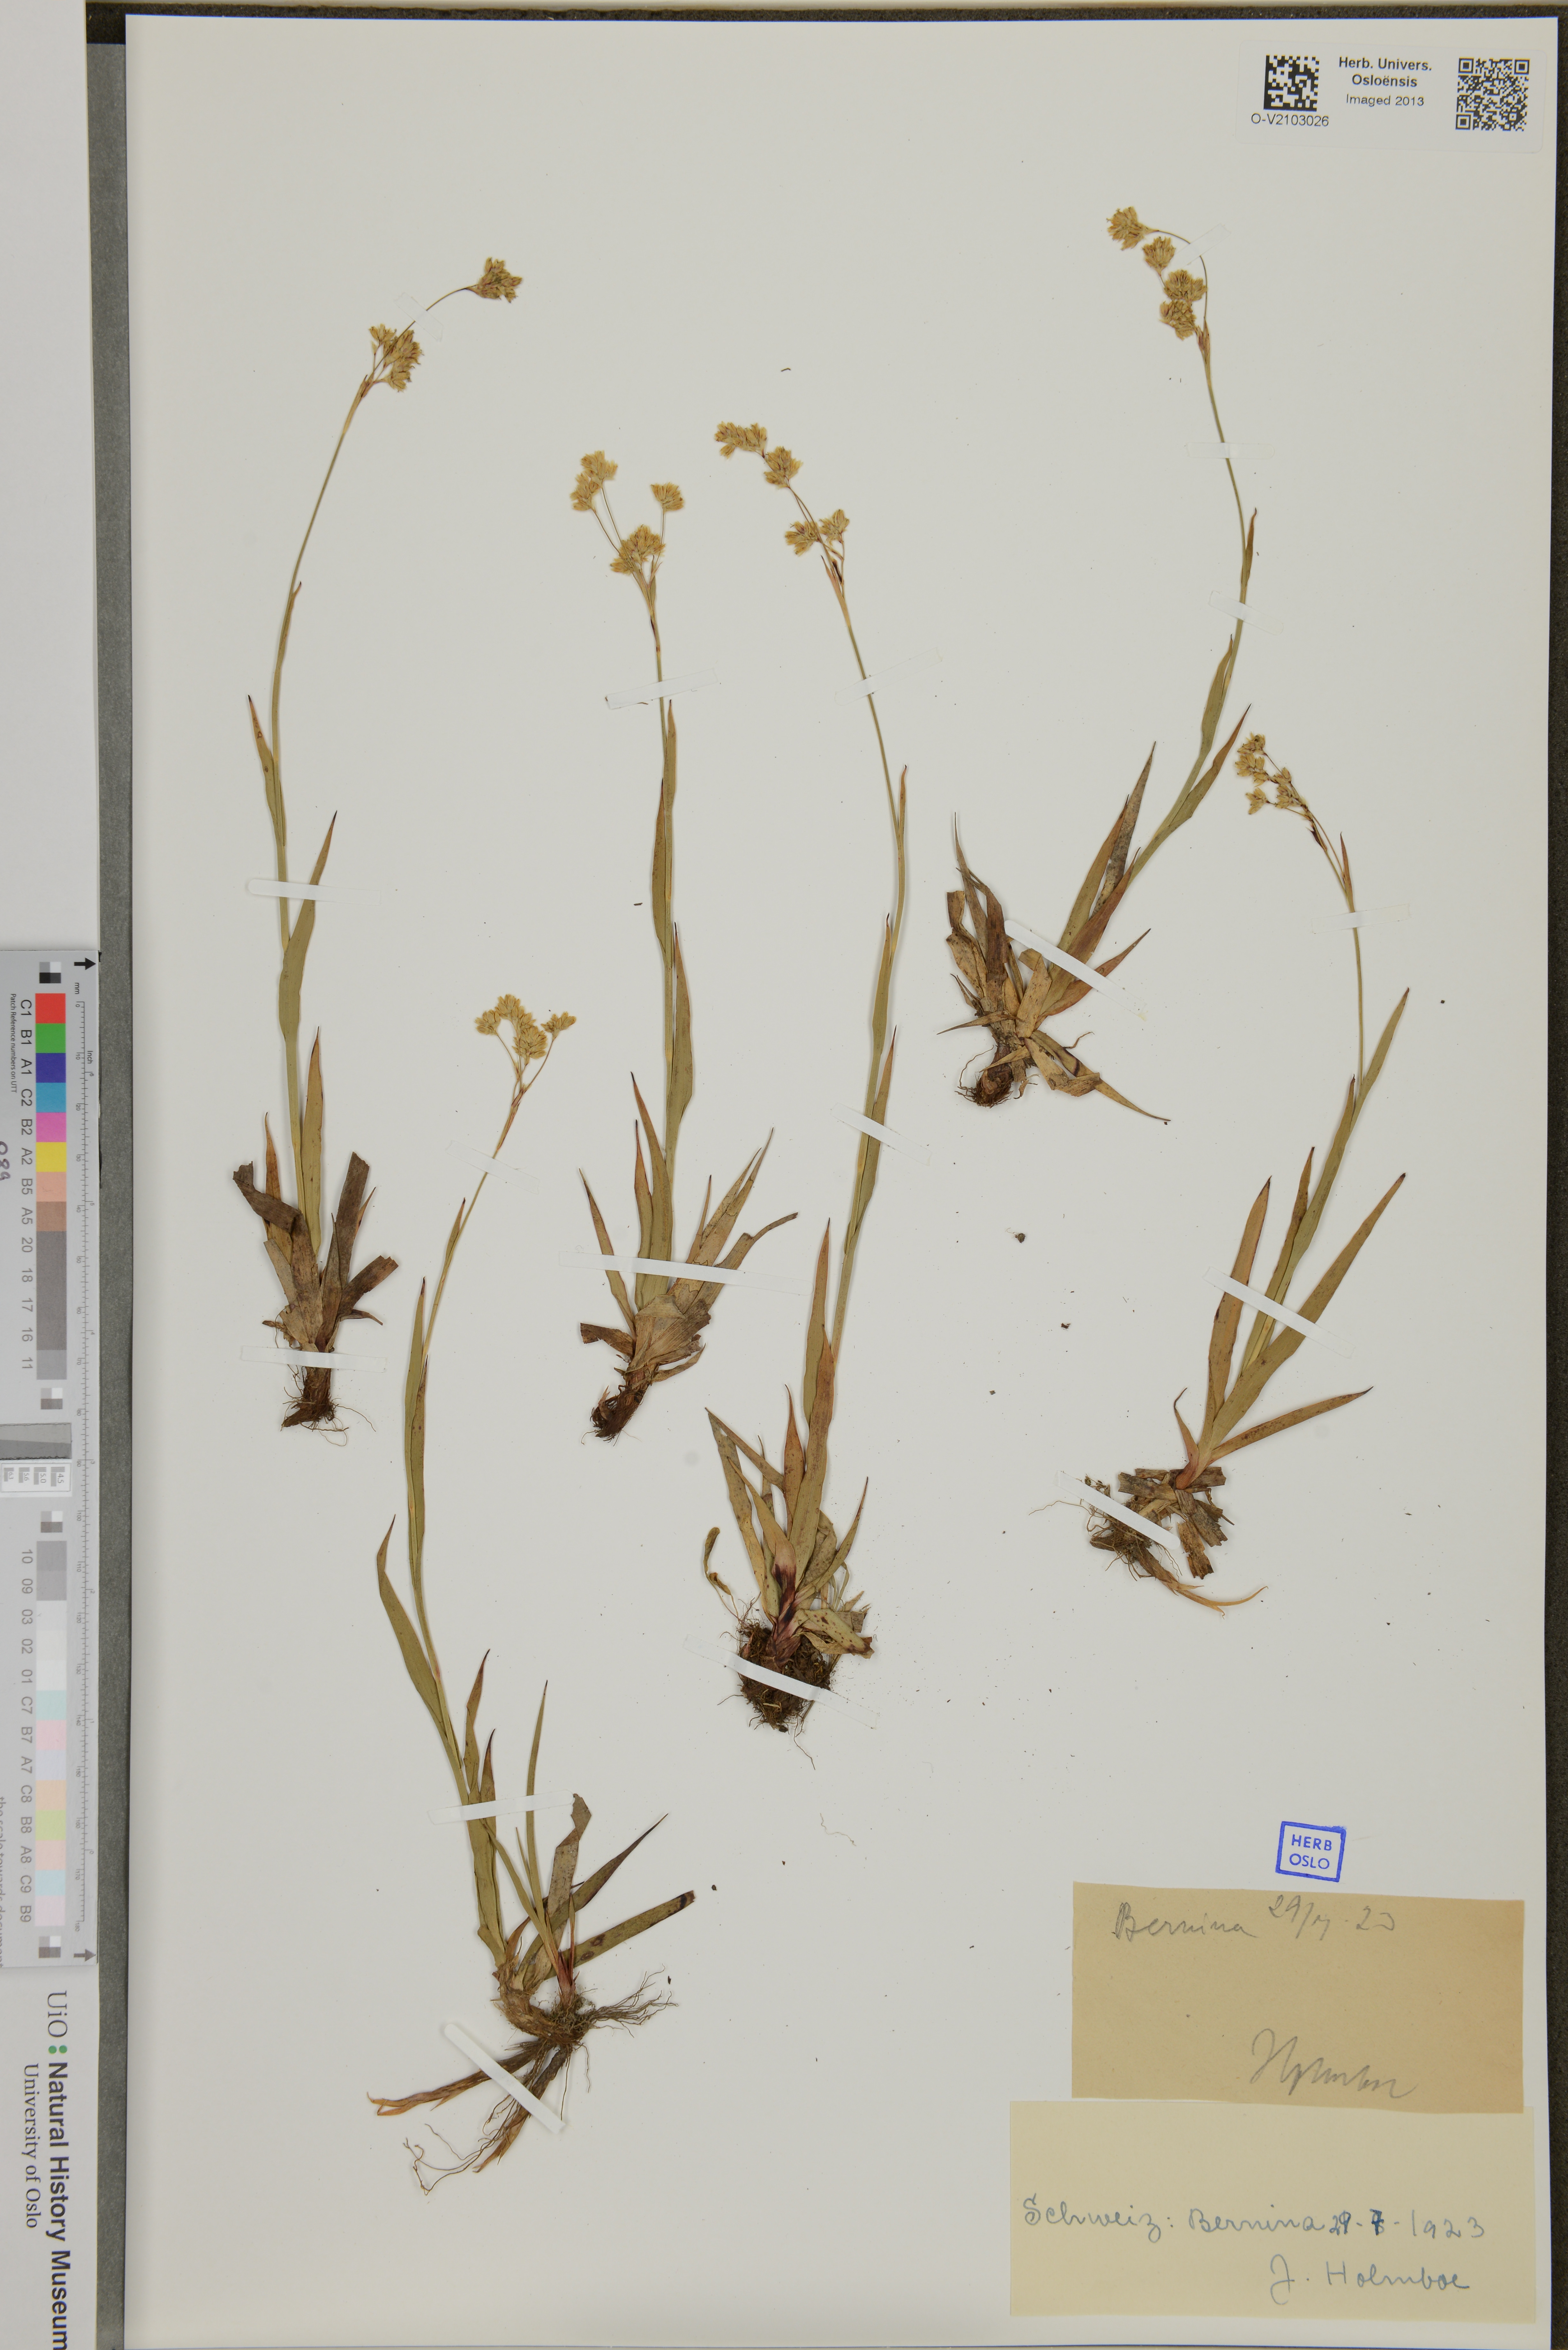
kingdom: Plantae
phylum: Tracheophyta
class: Liliopsida
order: Poales
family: Juncaceae
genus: Luzula
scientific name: Luzula
